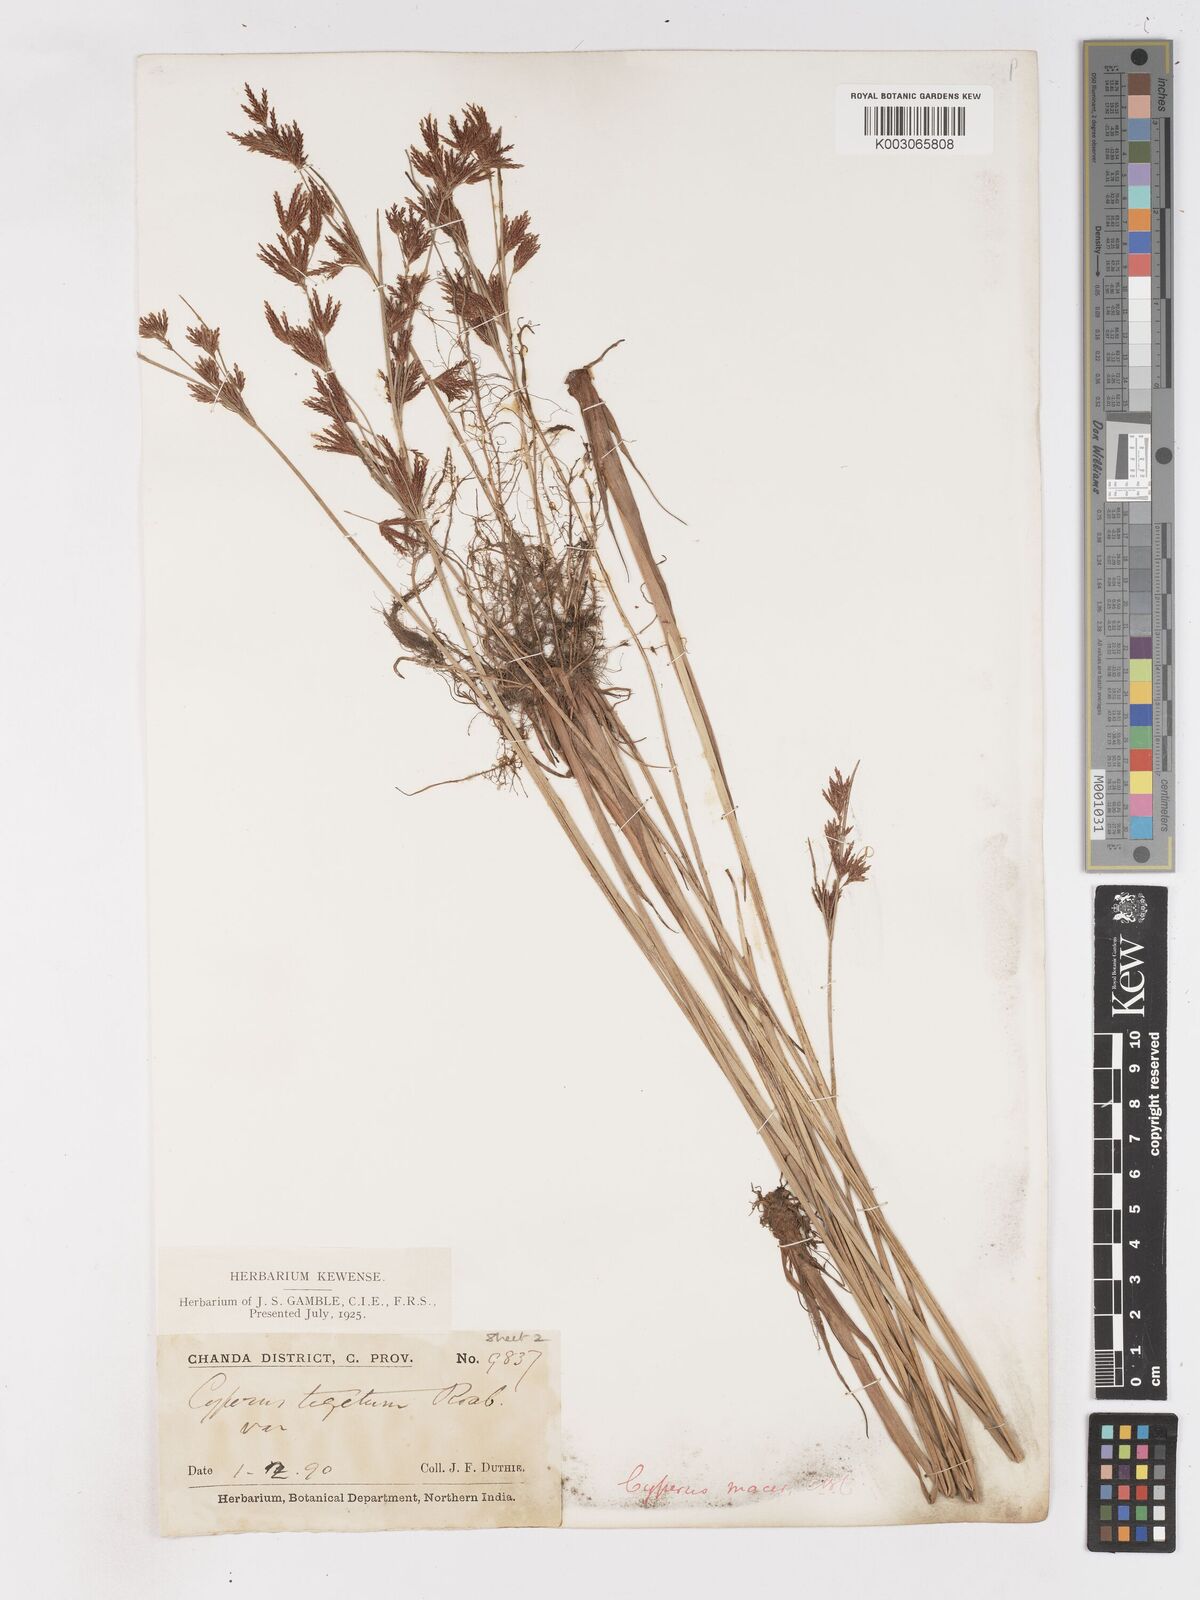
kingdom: Plantae
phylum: Tracheophyta
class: Liliopsida
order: Poales
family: Cyperaceae
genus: Cyperus
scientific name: Cyperus macer
